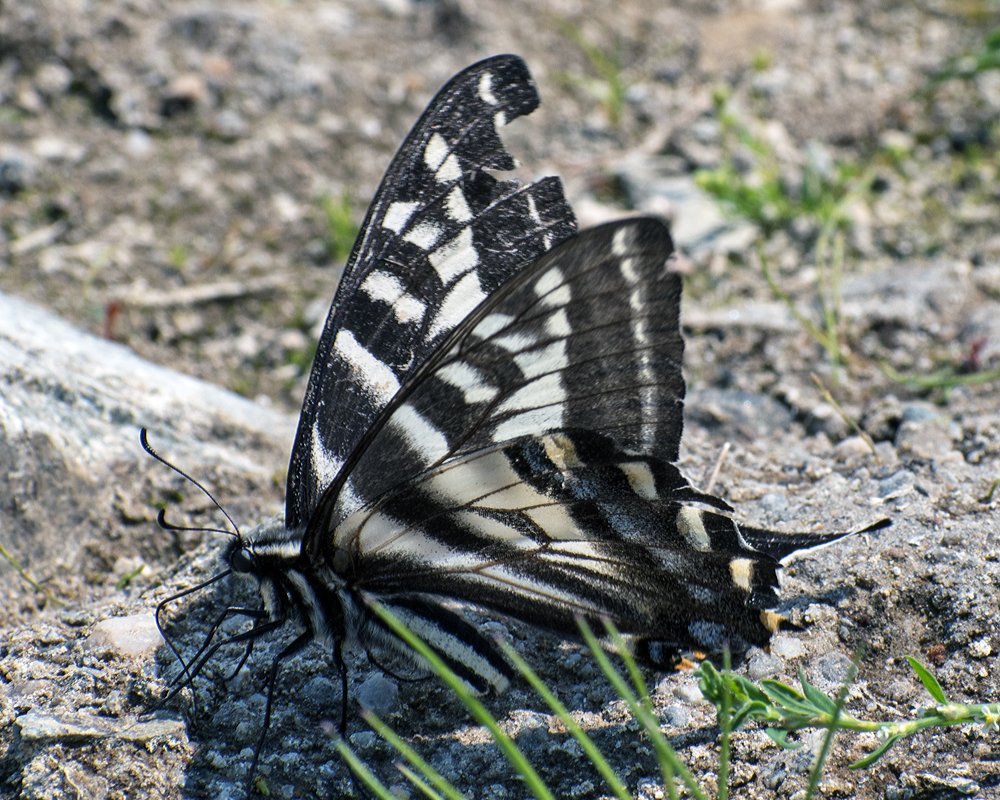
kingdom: Animalia
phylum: Arthropoda
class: Insecta
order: Lepidoptera
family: Papilionidae
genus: Pterourus
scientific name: Pterourus eurymedon
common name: Pale Swallowtail
